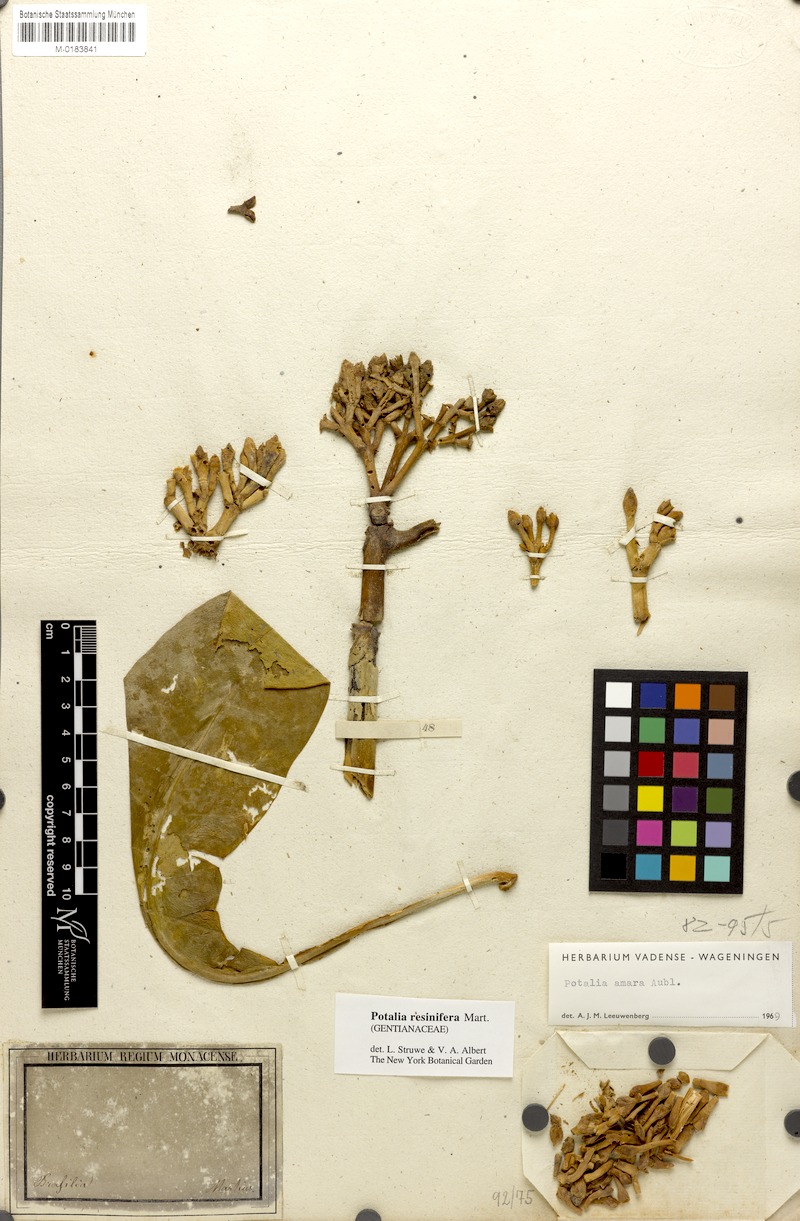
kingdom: Plantae
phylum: Tracheophyta
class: Magnoliopsida
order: Gentianales
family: Gentianaceae
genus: Potalia
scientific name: Potalia resinifera
